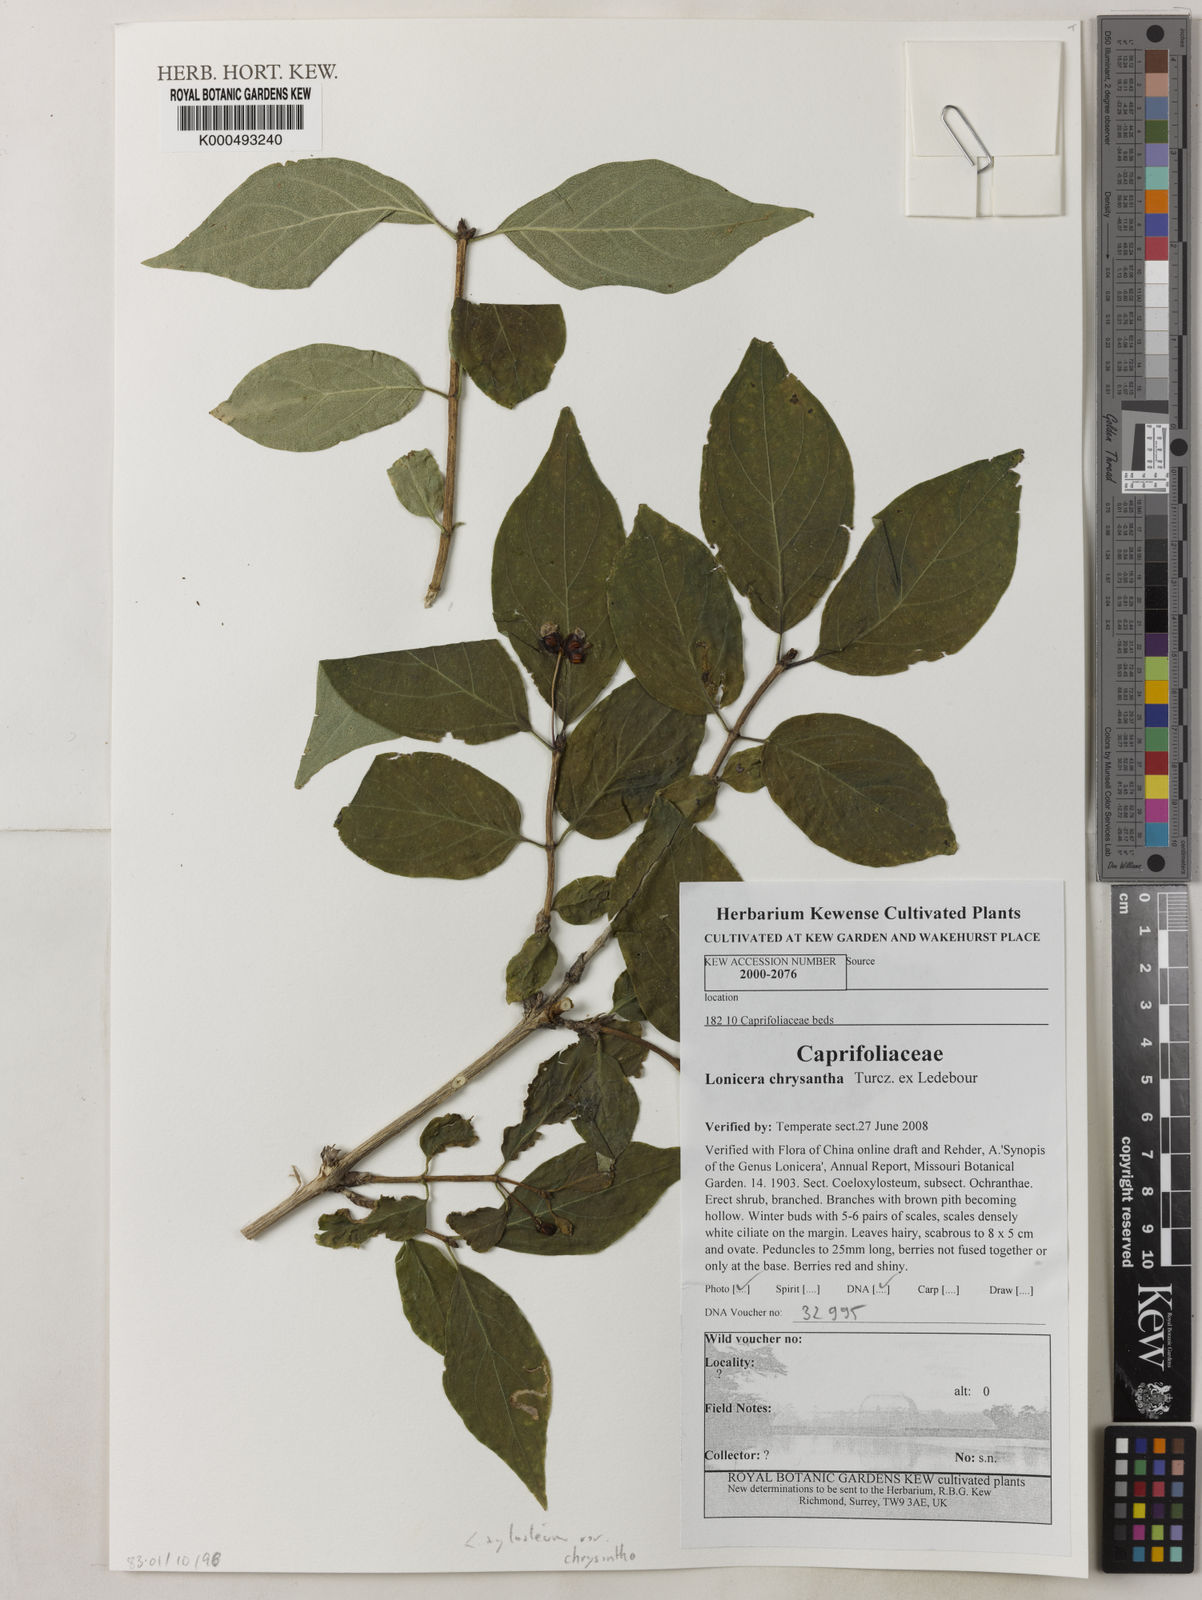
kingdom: Plantae
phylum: Tracheophyta
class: Magnoliopsida
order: Dipsacales
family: Caprifoliaceae
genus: Lonicera
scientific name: Lonicera chrysantha
